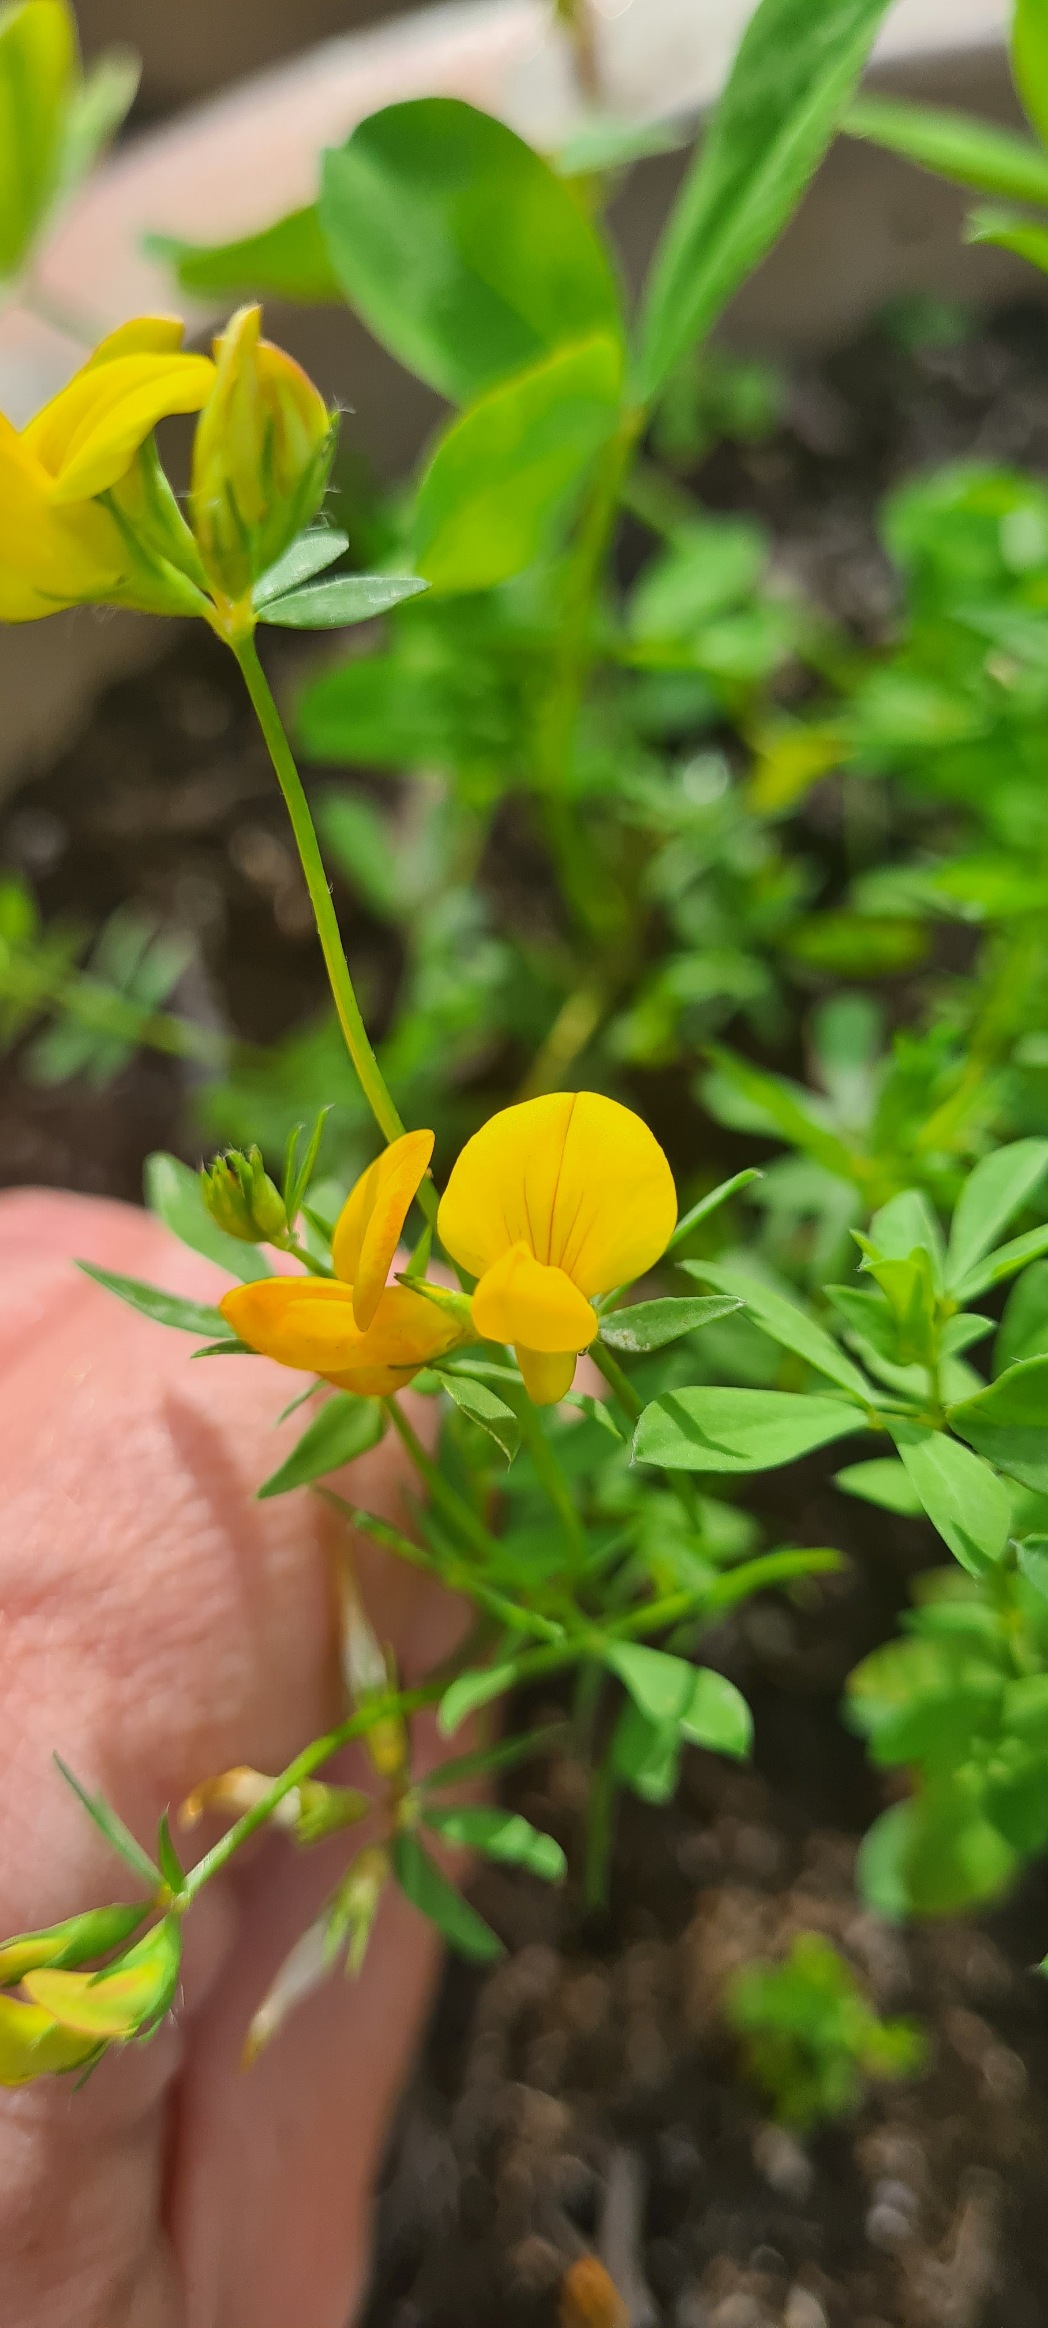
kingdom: Plantae
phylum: Tracheophyta
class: Magnoliopsida
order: Fabales
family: Fabaceae
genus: Lotus
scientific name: Lotus corniculatus
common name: Almindelig kællingetand
